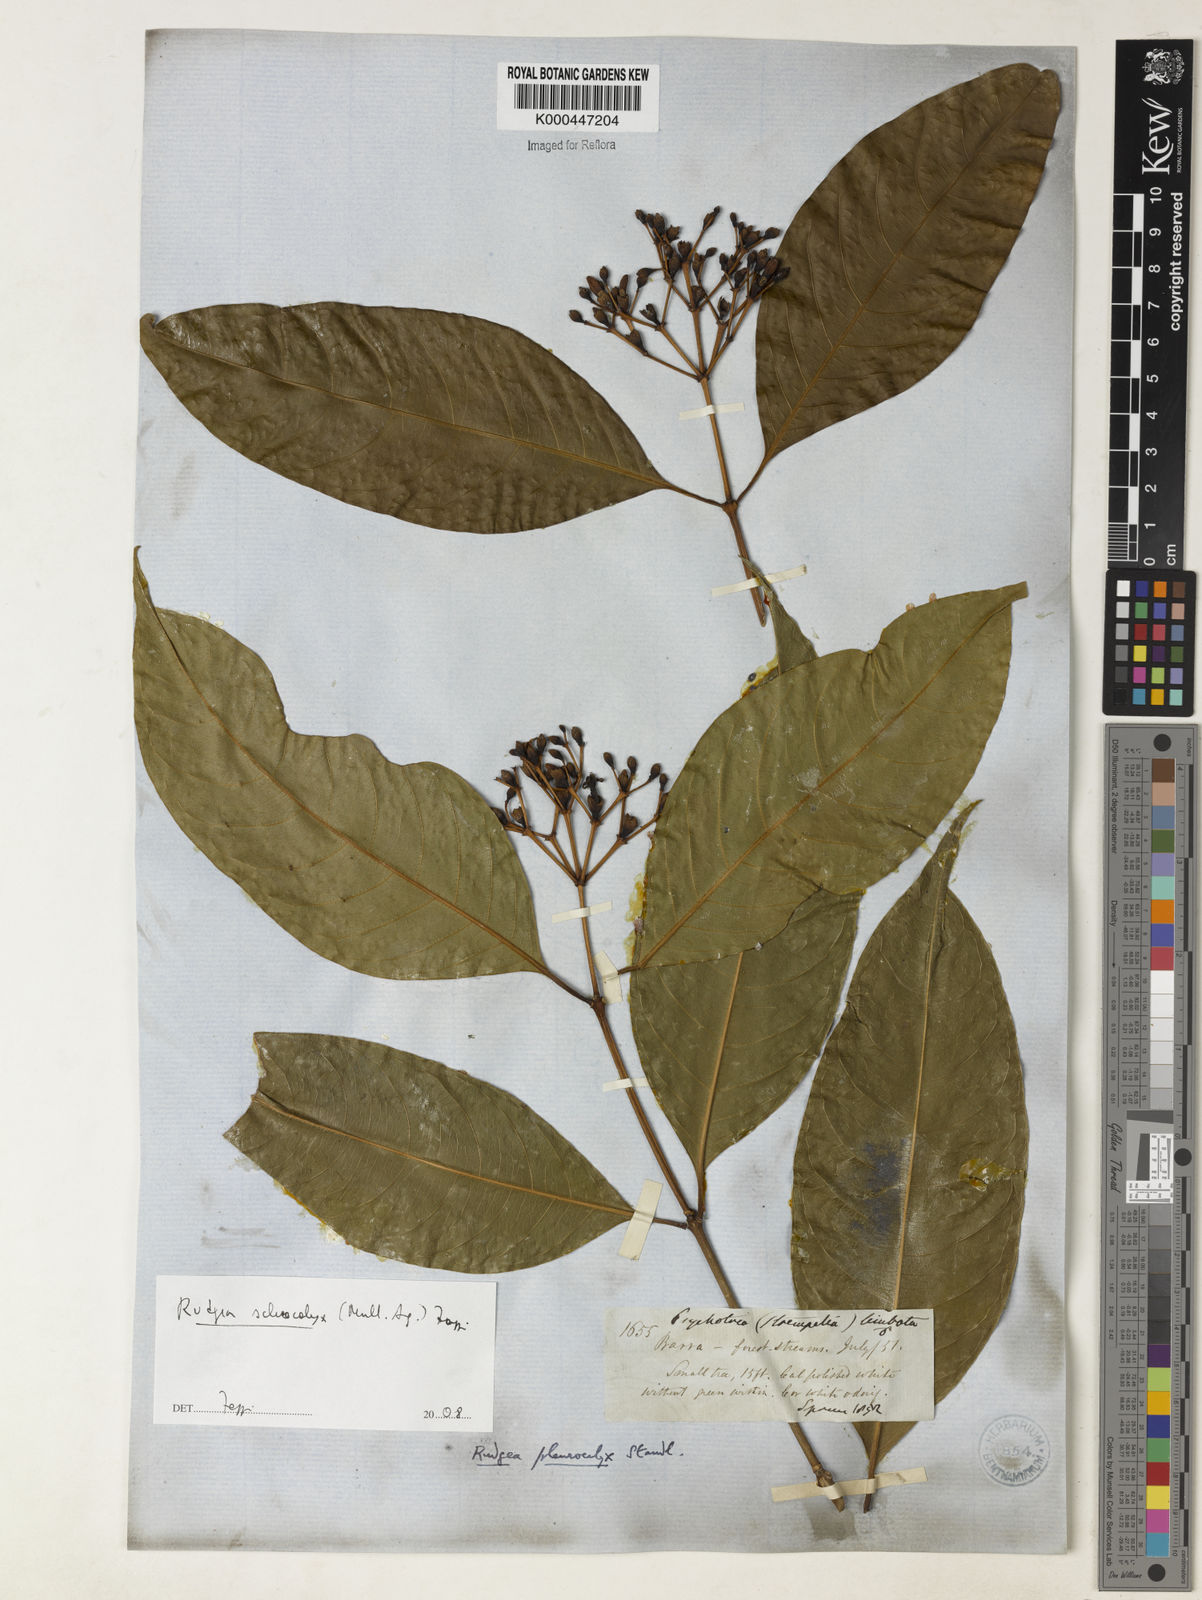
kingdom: Plantae
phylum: Tracheophyta
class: Magnoliopsida
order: Gentianales
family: Rubiaceae
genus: Rudgea
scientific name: Rudgea sclerocalyx
